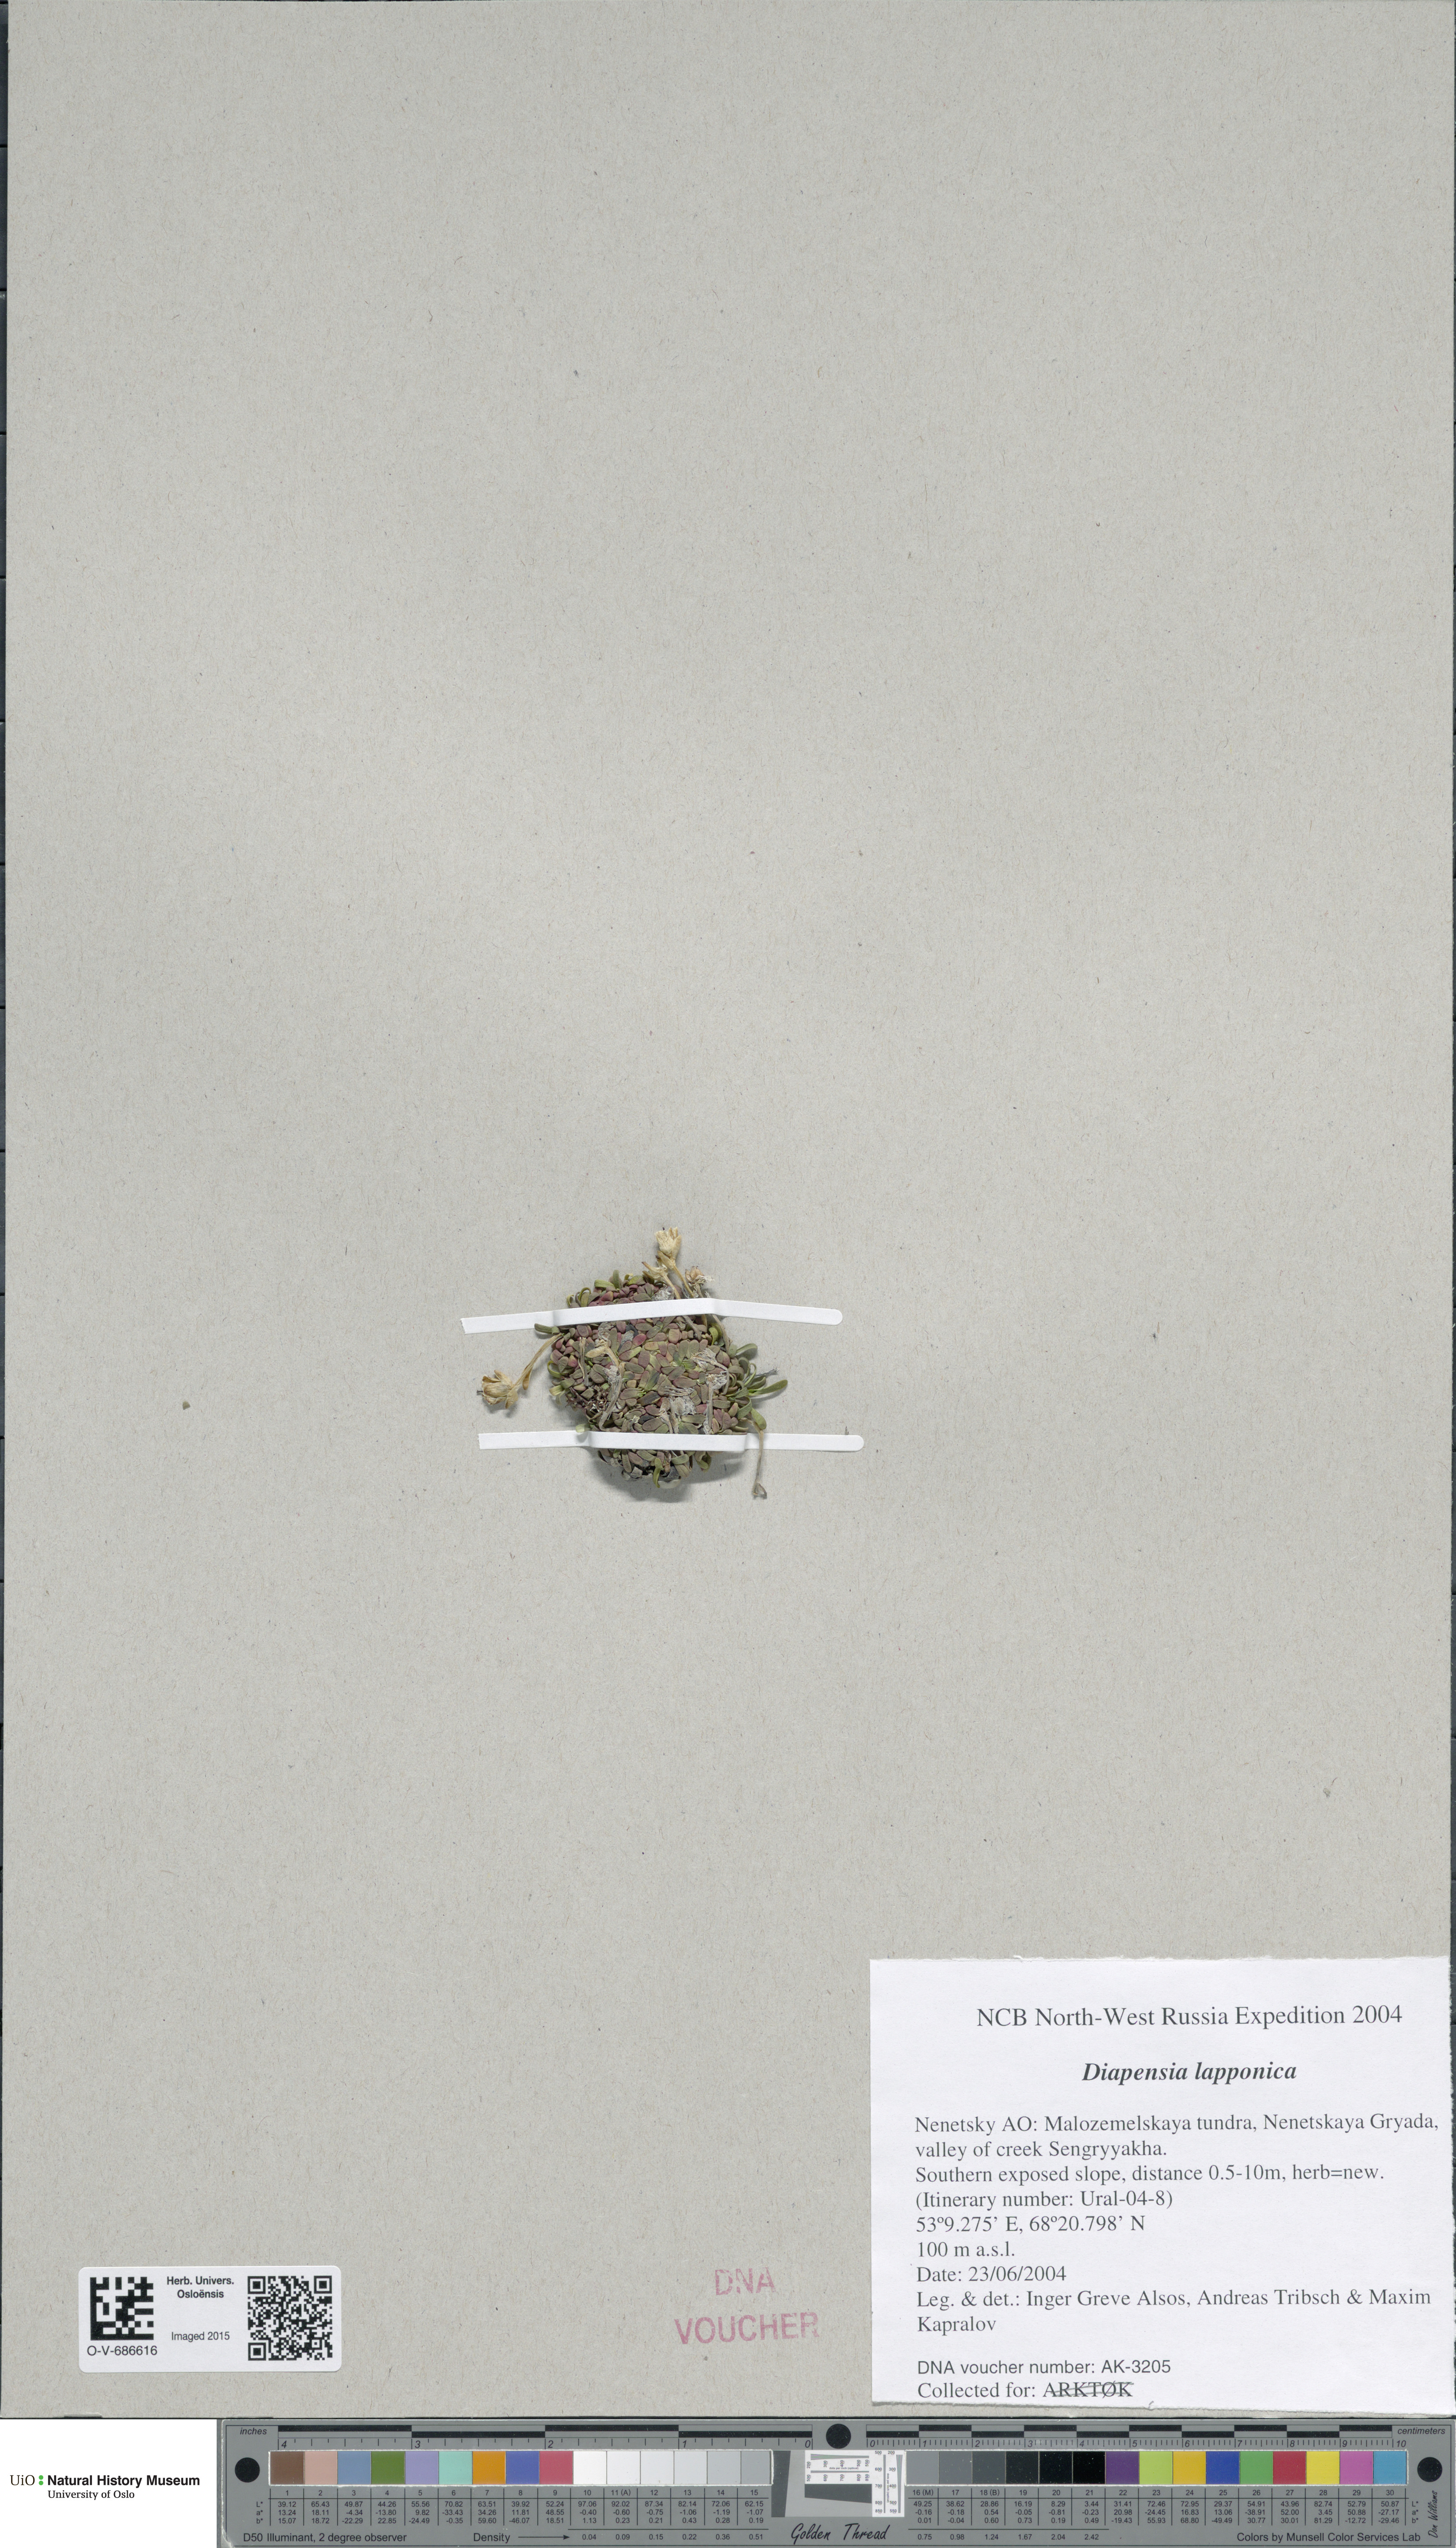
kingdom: Plantae
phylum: Tracheophyta
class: Magnoliopsida
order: Ericales
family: Diapensiaceae
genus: Diapensia
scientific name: Diapensia lapponica
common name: Diapensia
